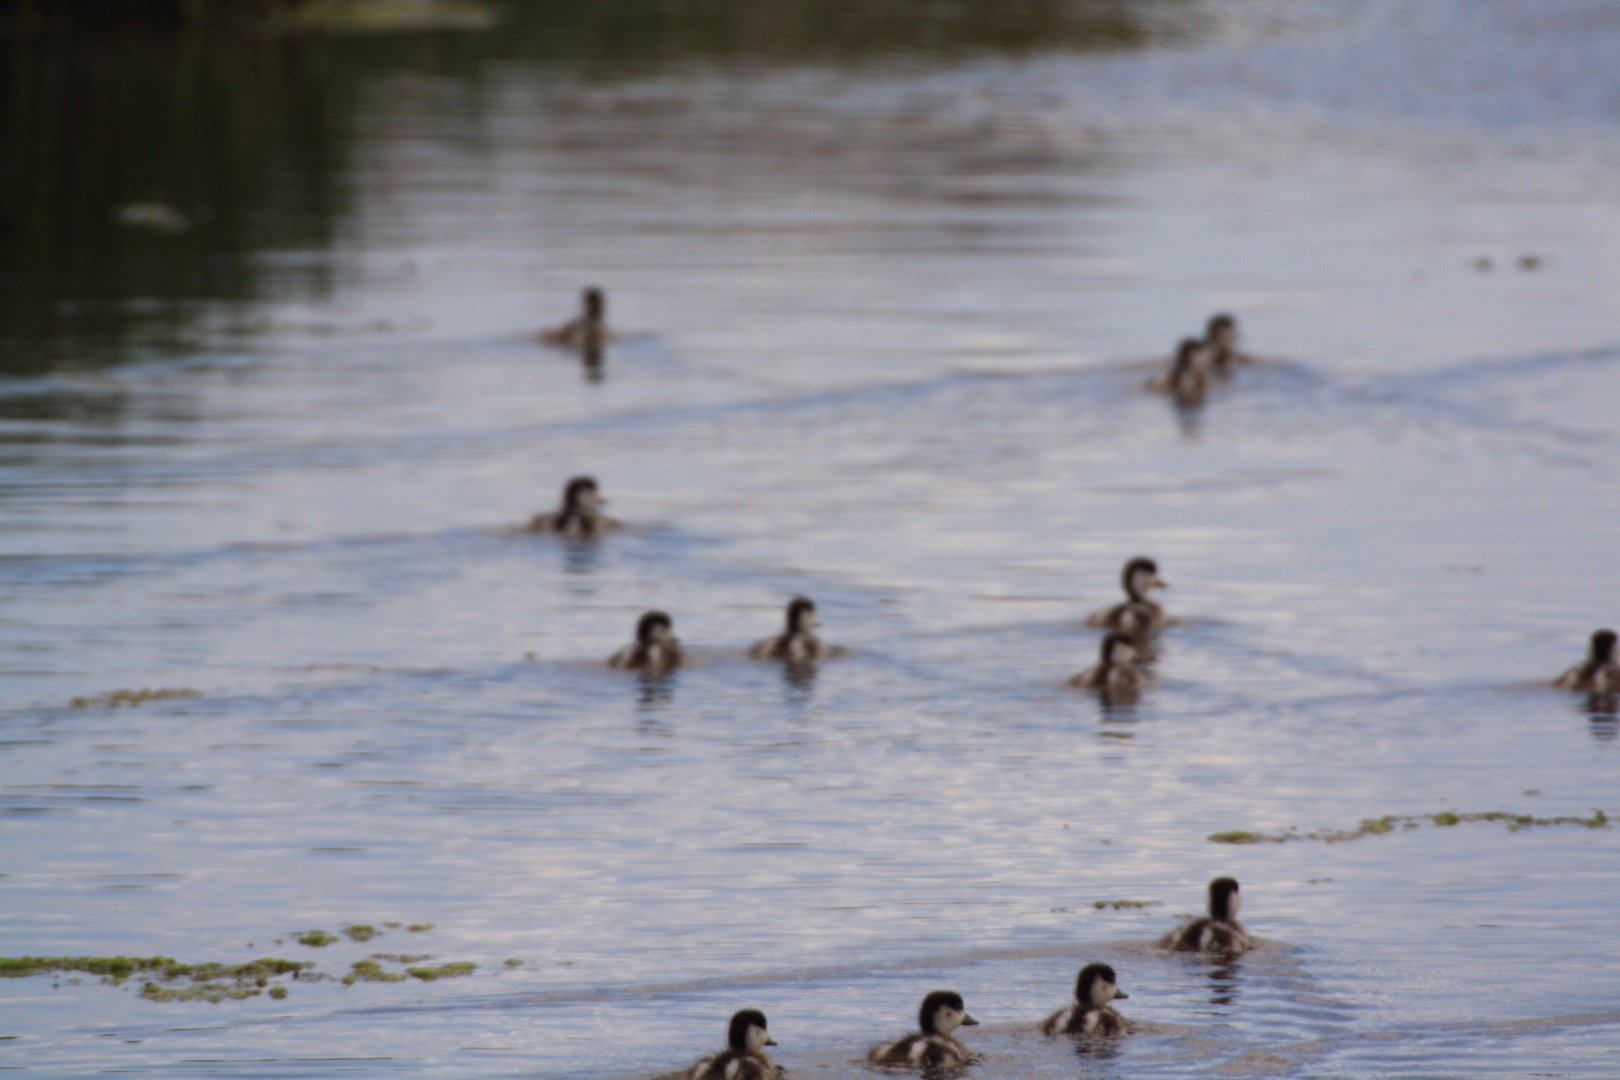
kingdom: Animalia
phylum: Chordata
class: Aves
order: Anseriformes
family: Anatidae
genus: Tadorna
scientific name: Tadorna tadorna
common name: Gravand
